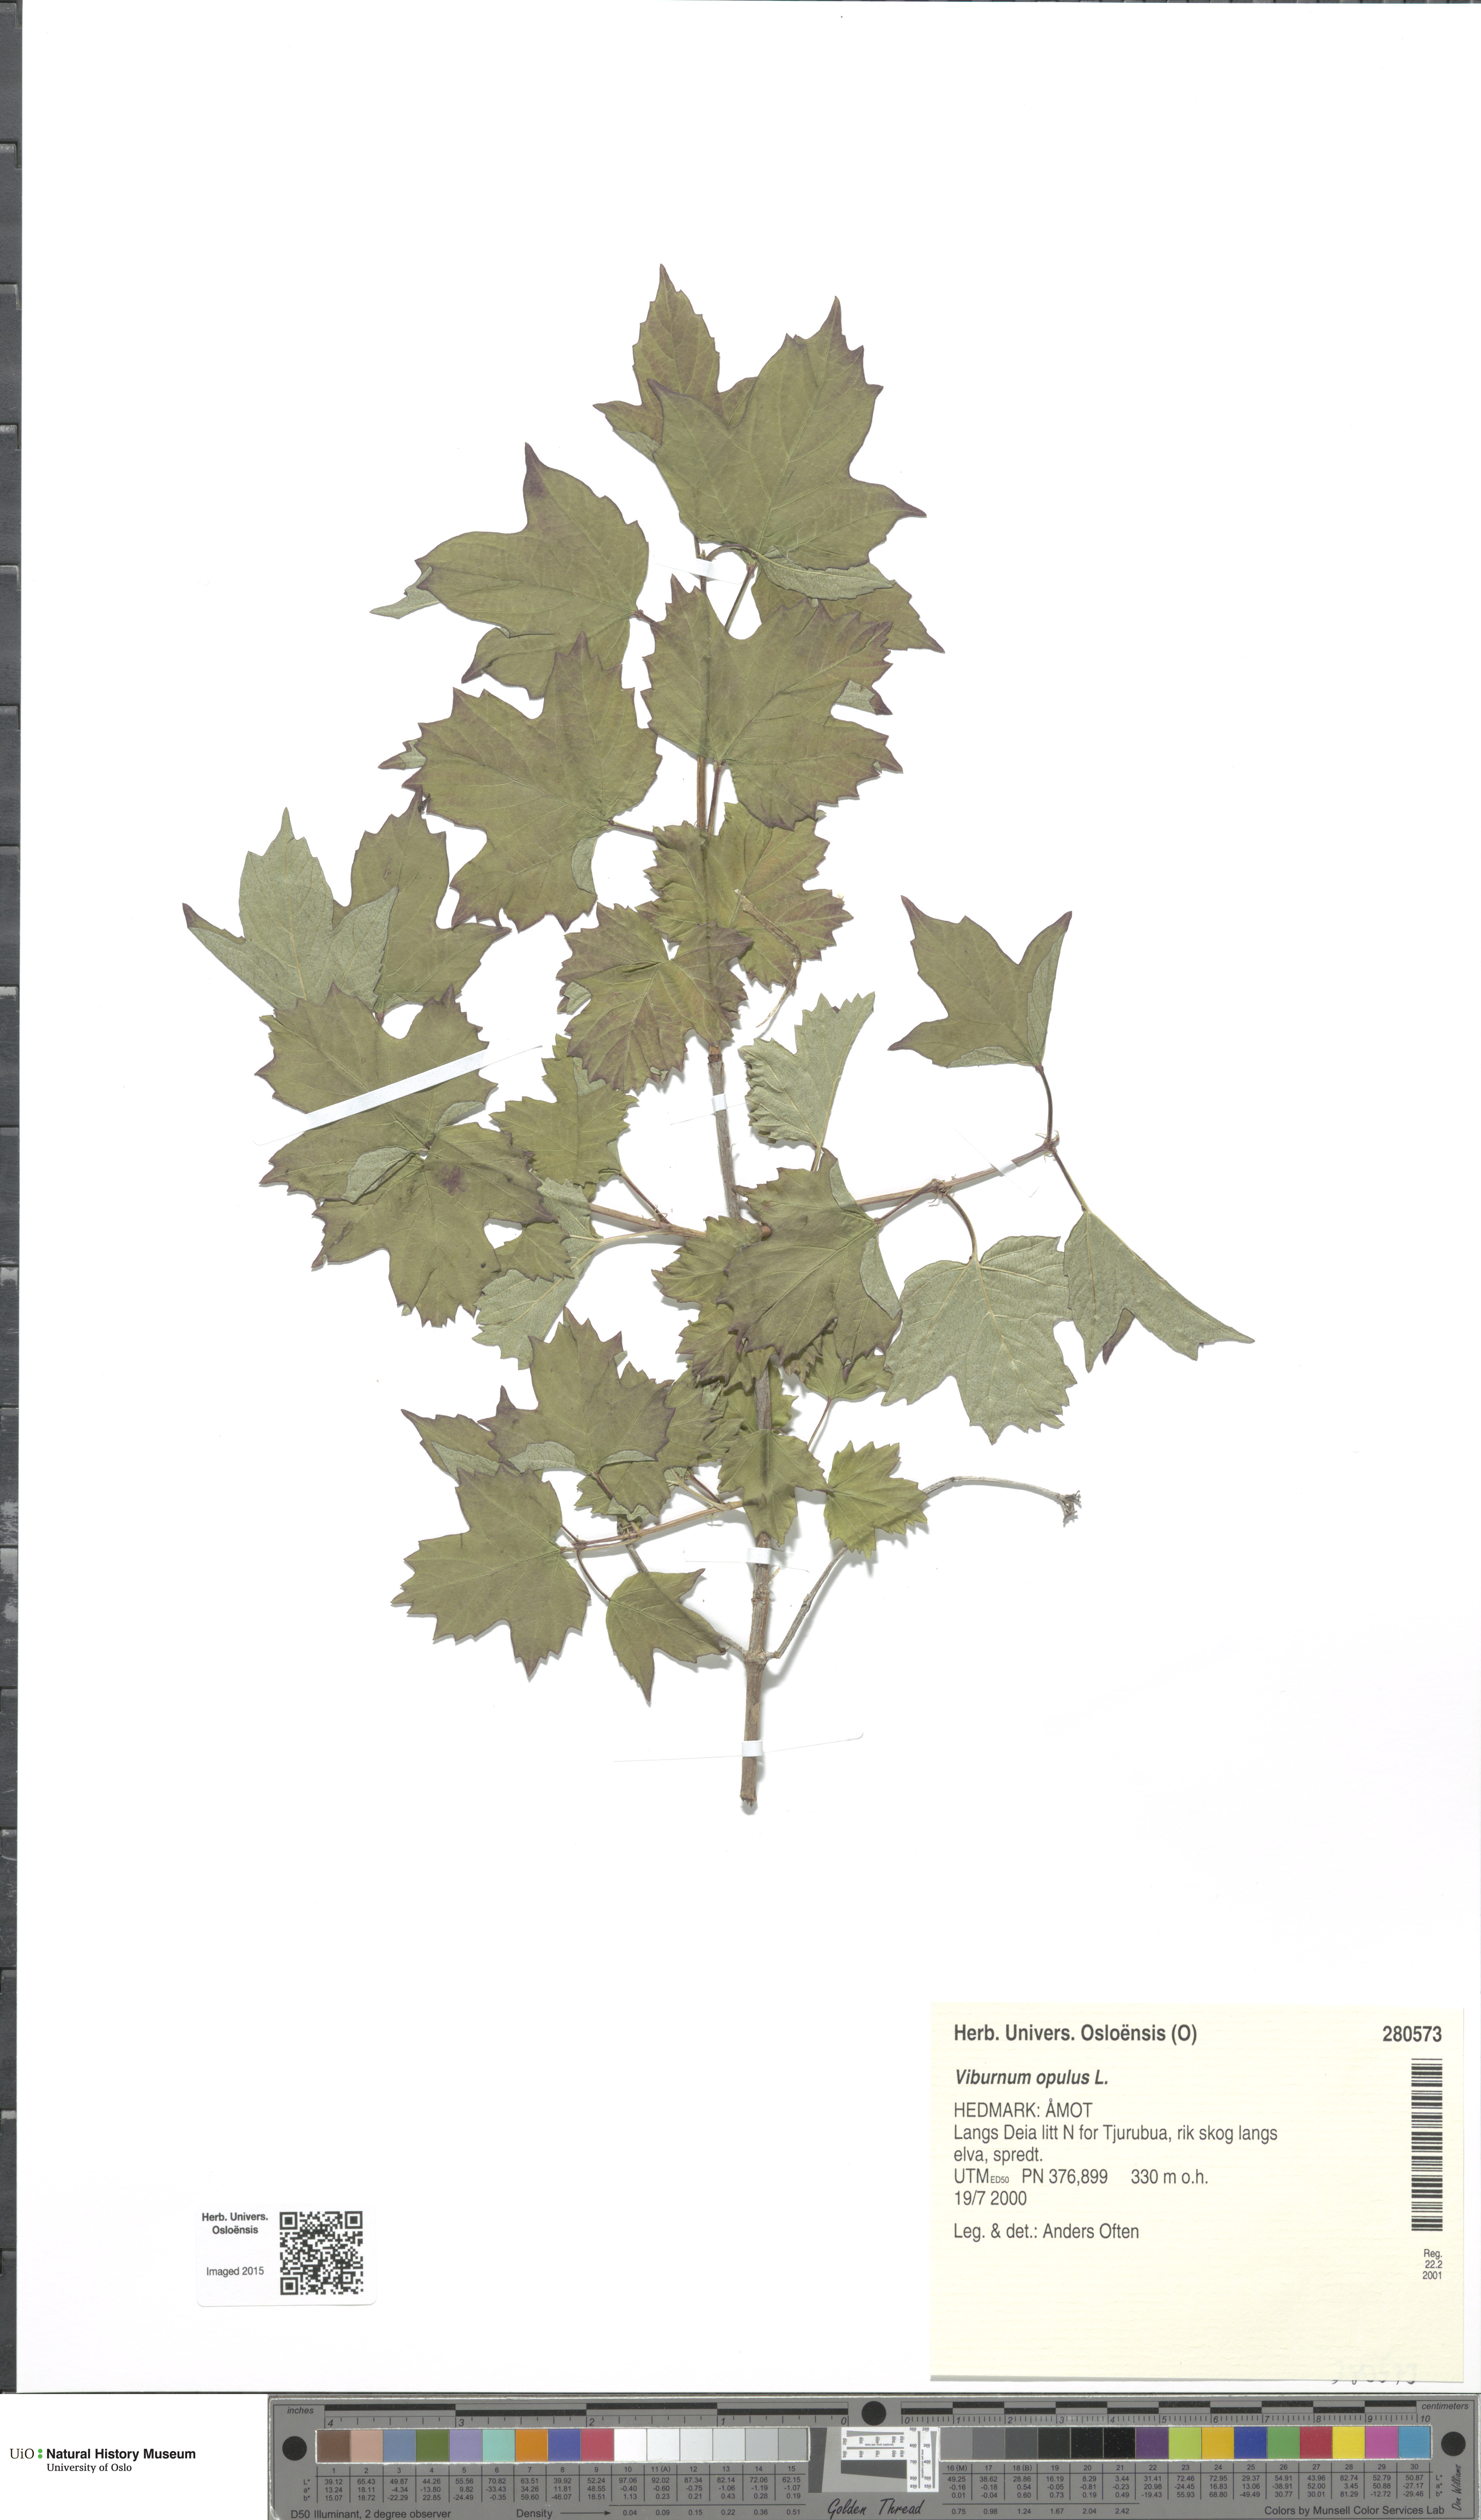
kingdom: Plantae
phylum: Tracheophyta
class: Magnoliopsida
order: Dipsacales
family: Viburnaceae
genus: Viburnum
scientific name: Viburnum opulus
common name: Guelder-rose
